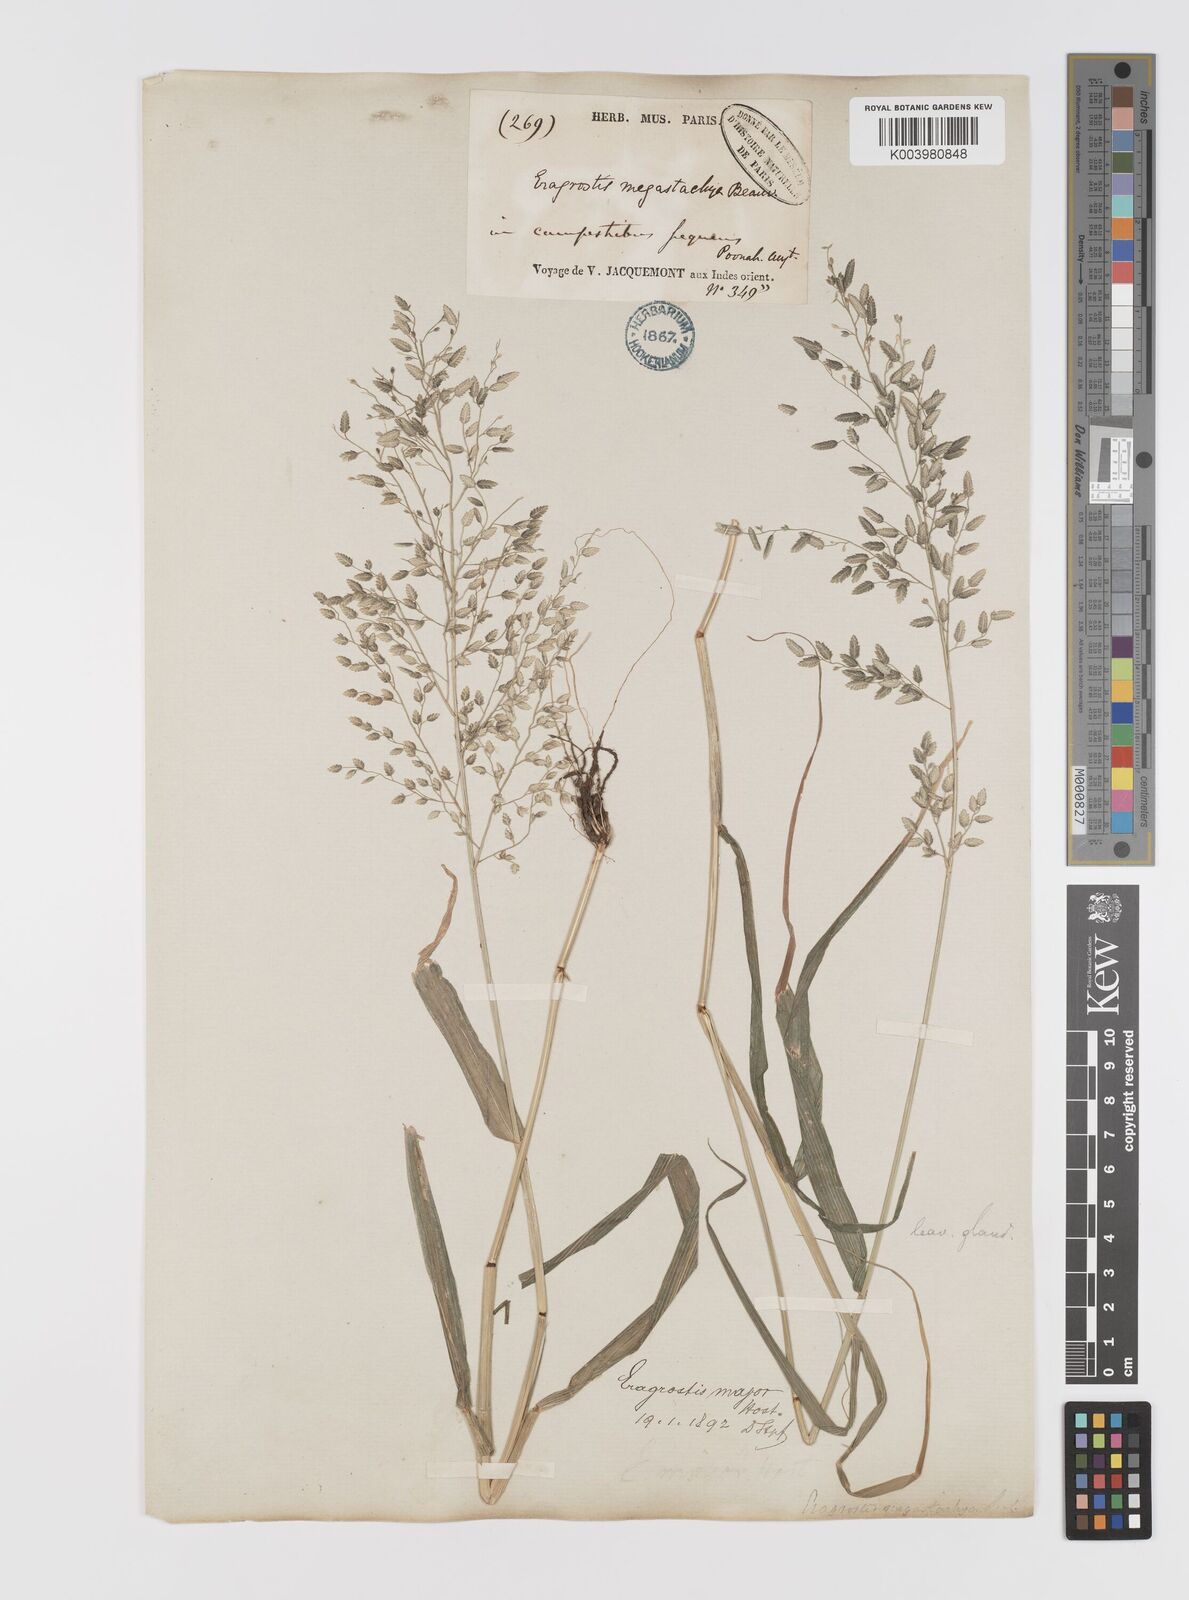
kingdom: Plantae
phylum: Tracheophyta
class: Liliopsida
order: Poales
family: Poaceae
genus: Eragrostis
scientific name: Eragrostis cilianensis
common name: Stinkgrass
